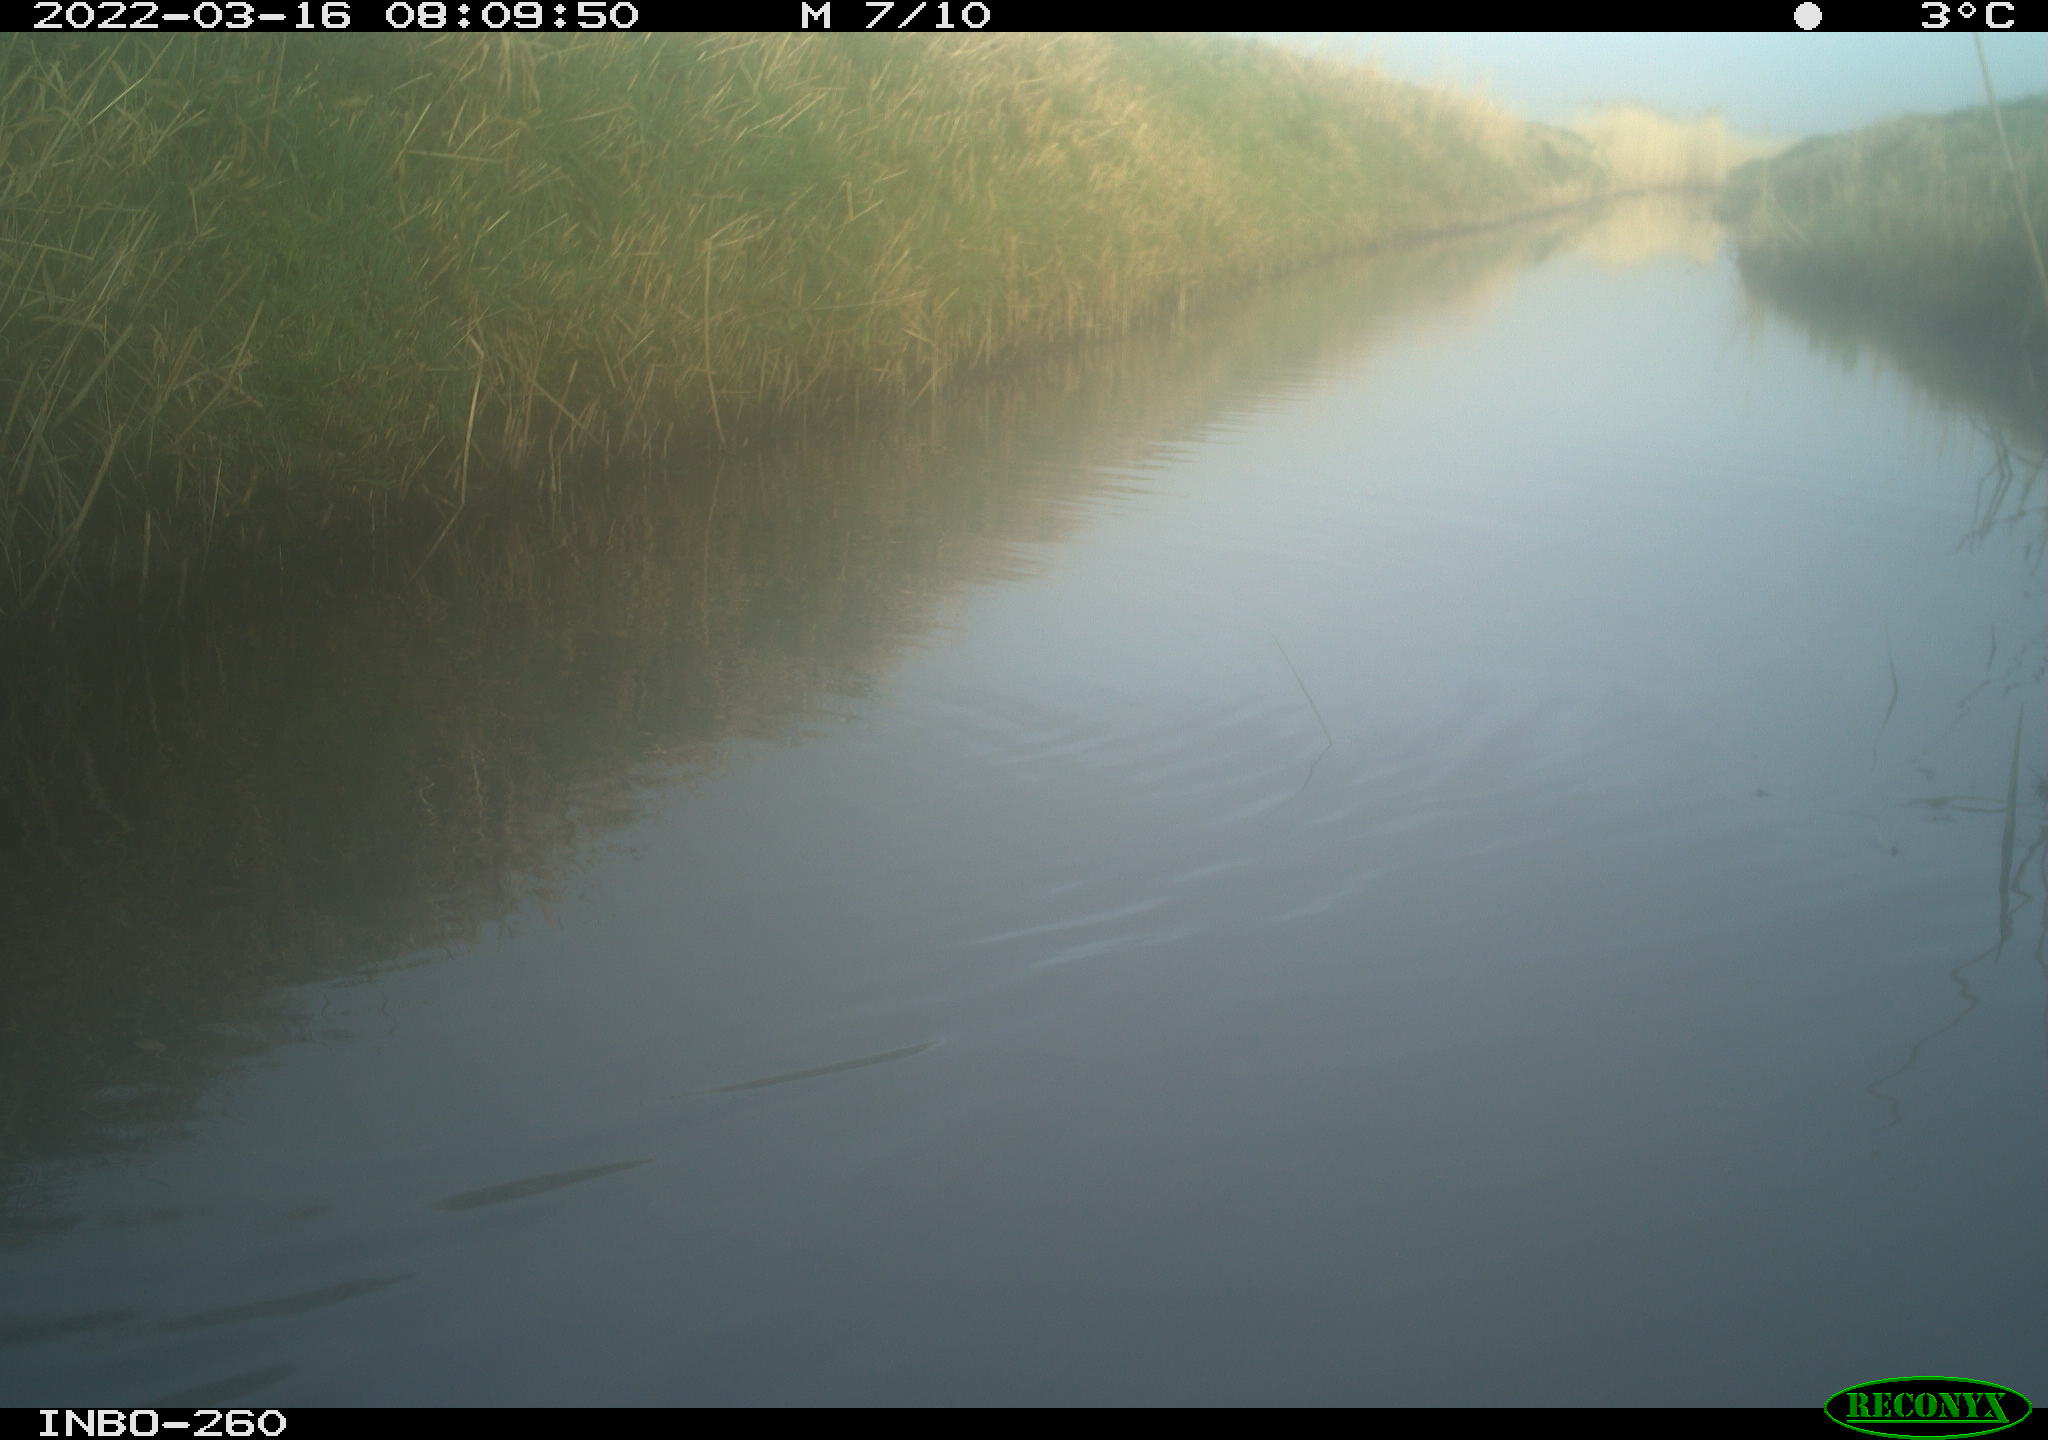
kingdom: Animalia
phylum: Chordata
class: Aves
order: Gruiformes
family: Rallidae
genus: Fulica
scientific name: Fulica atra
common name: Eurasian coot
